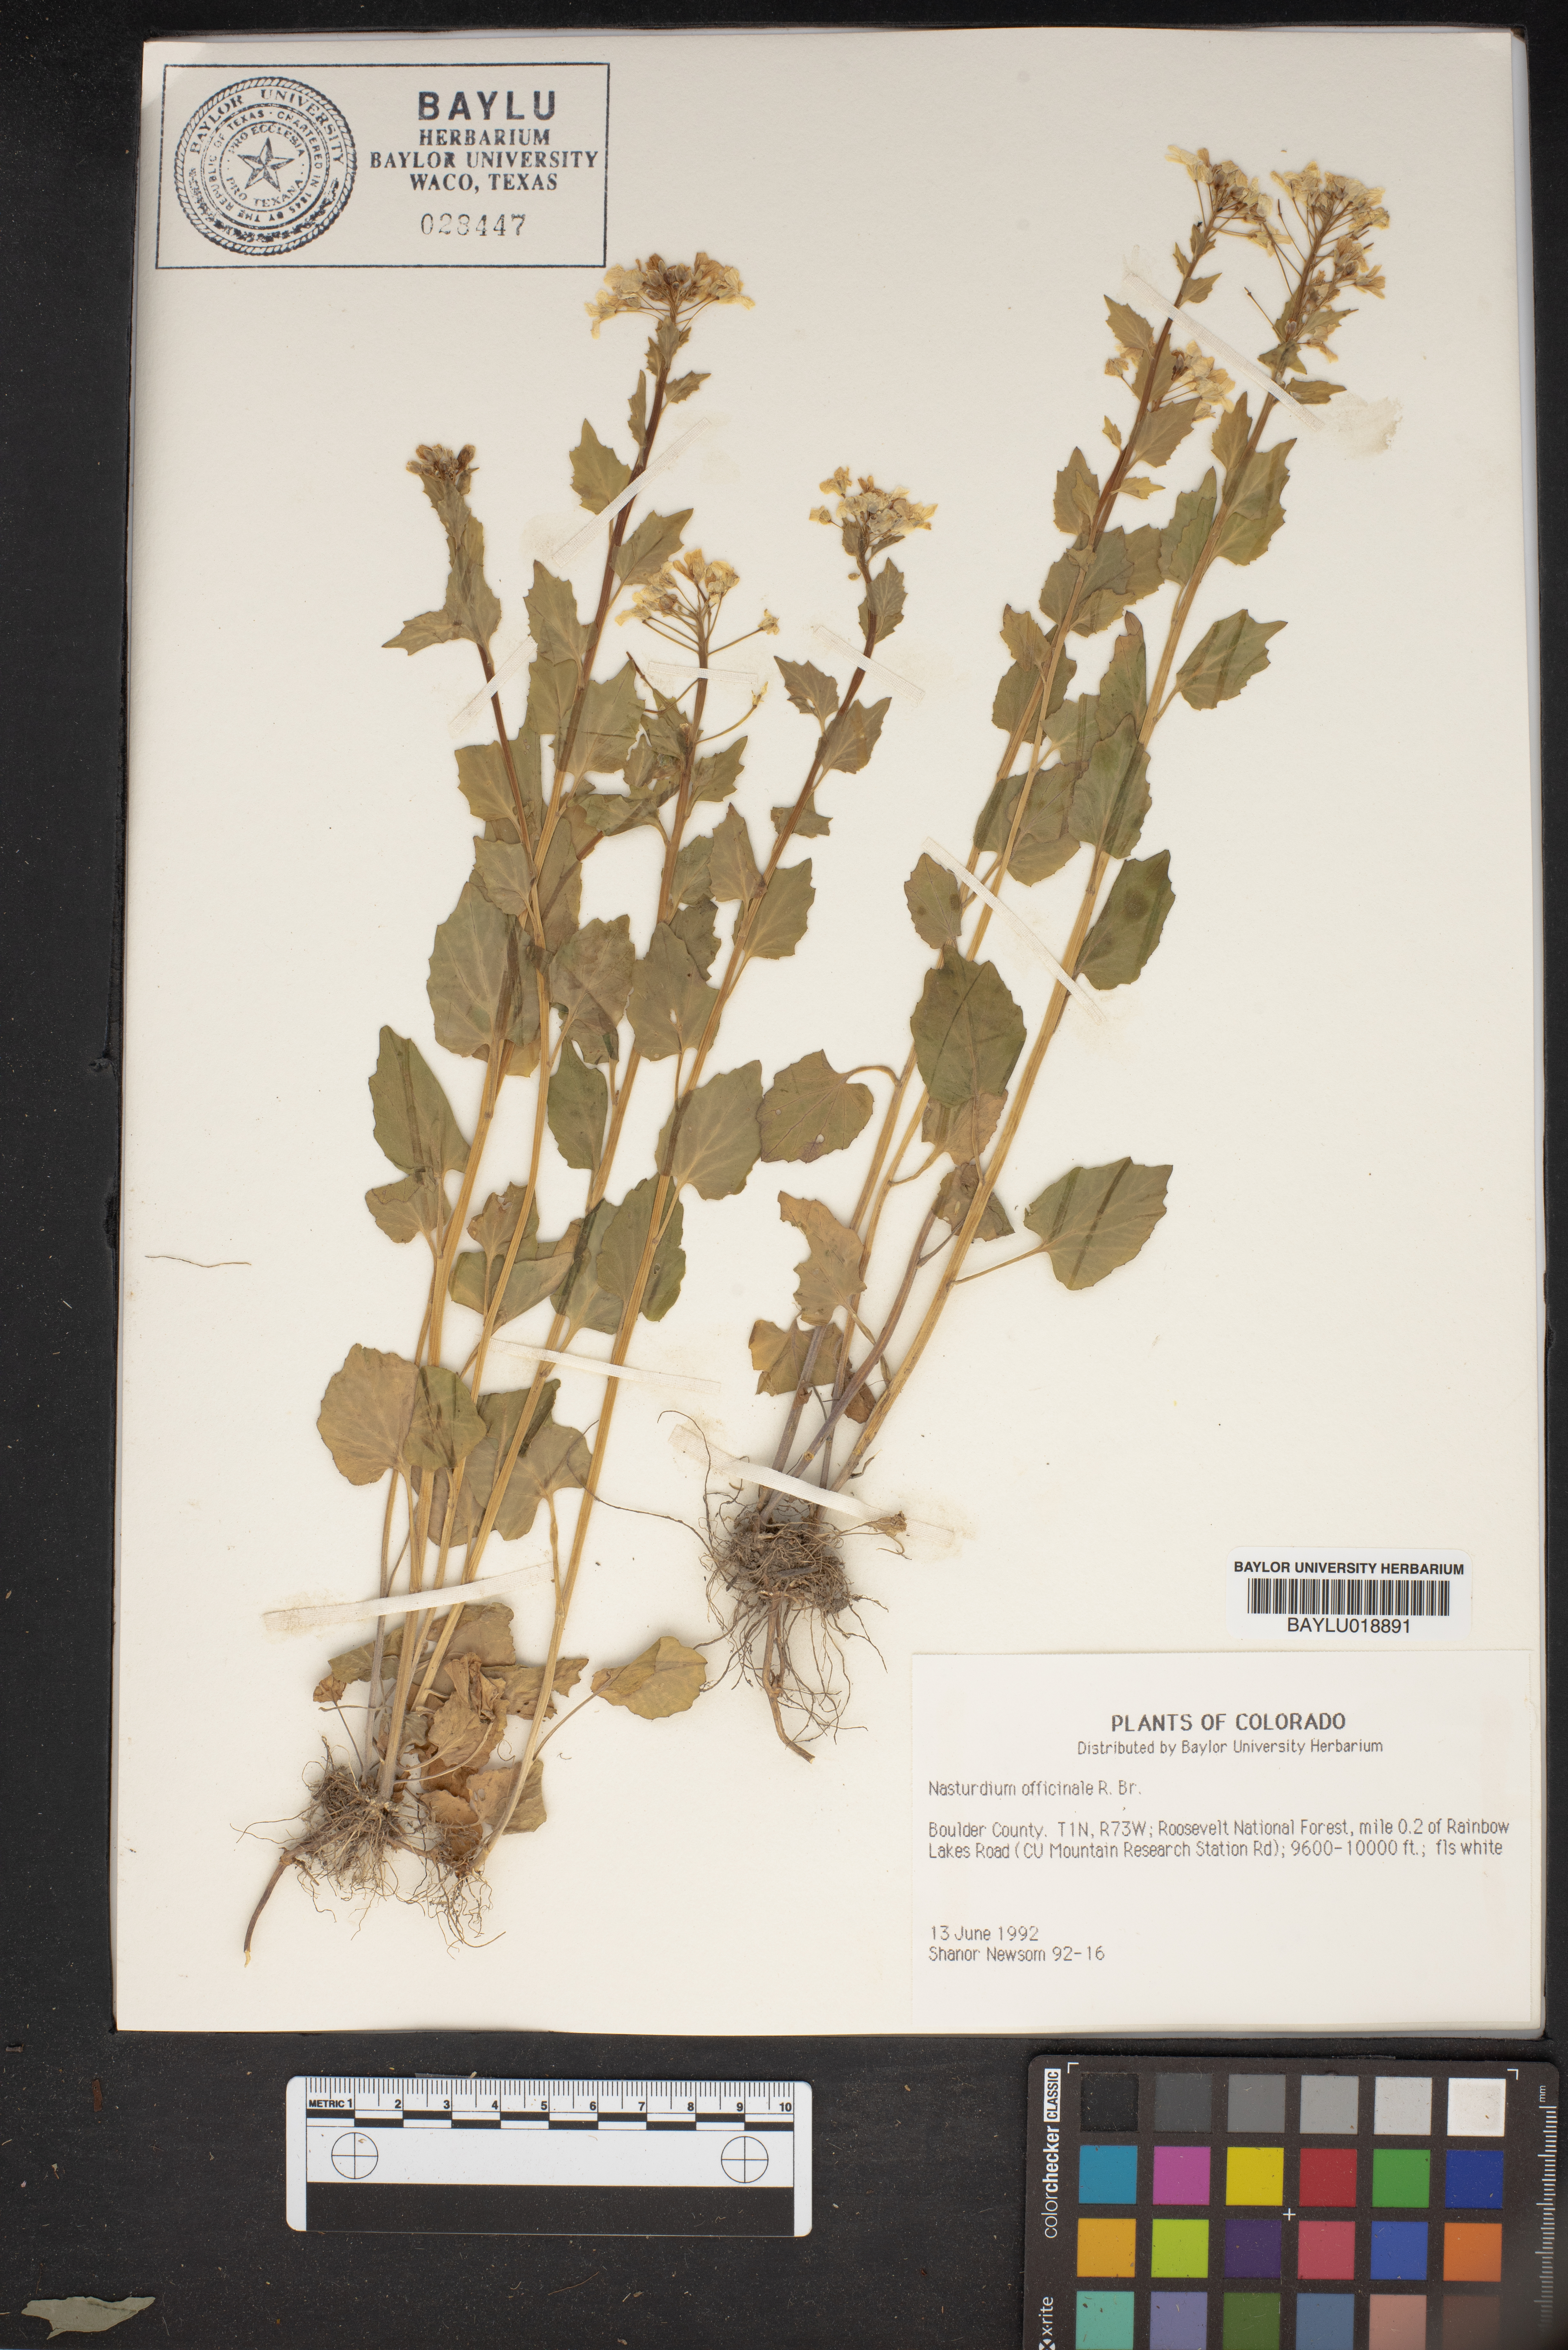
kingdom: Plantae
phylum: Tracheophyta
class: Magnoliopsida
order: Brassicales
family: Brassicaceae
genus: Nasturtium
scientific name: Nasturtium officinale
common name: Watercress
